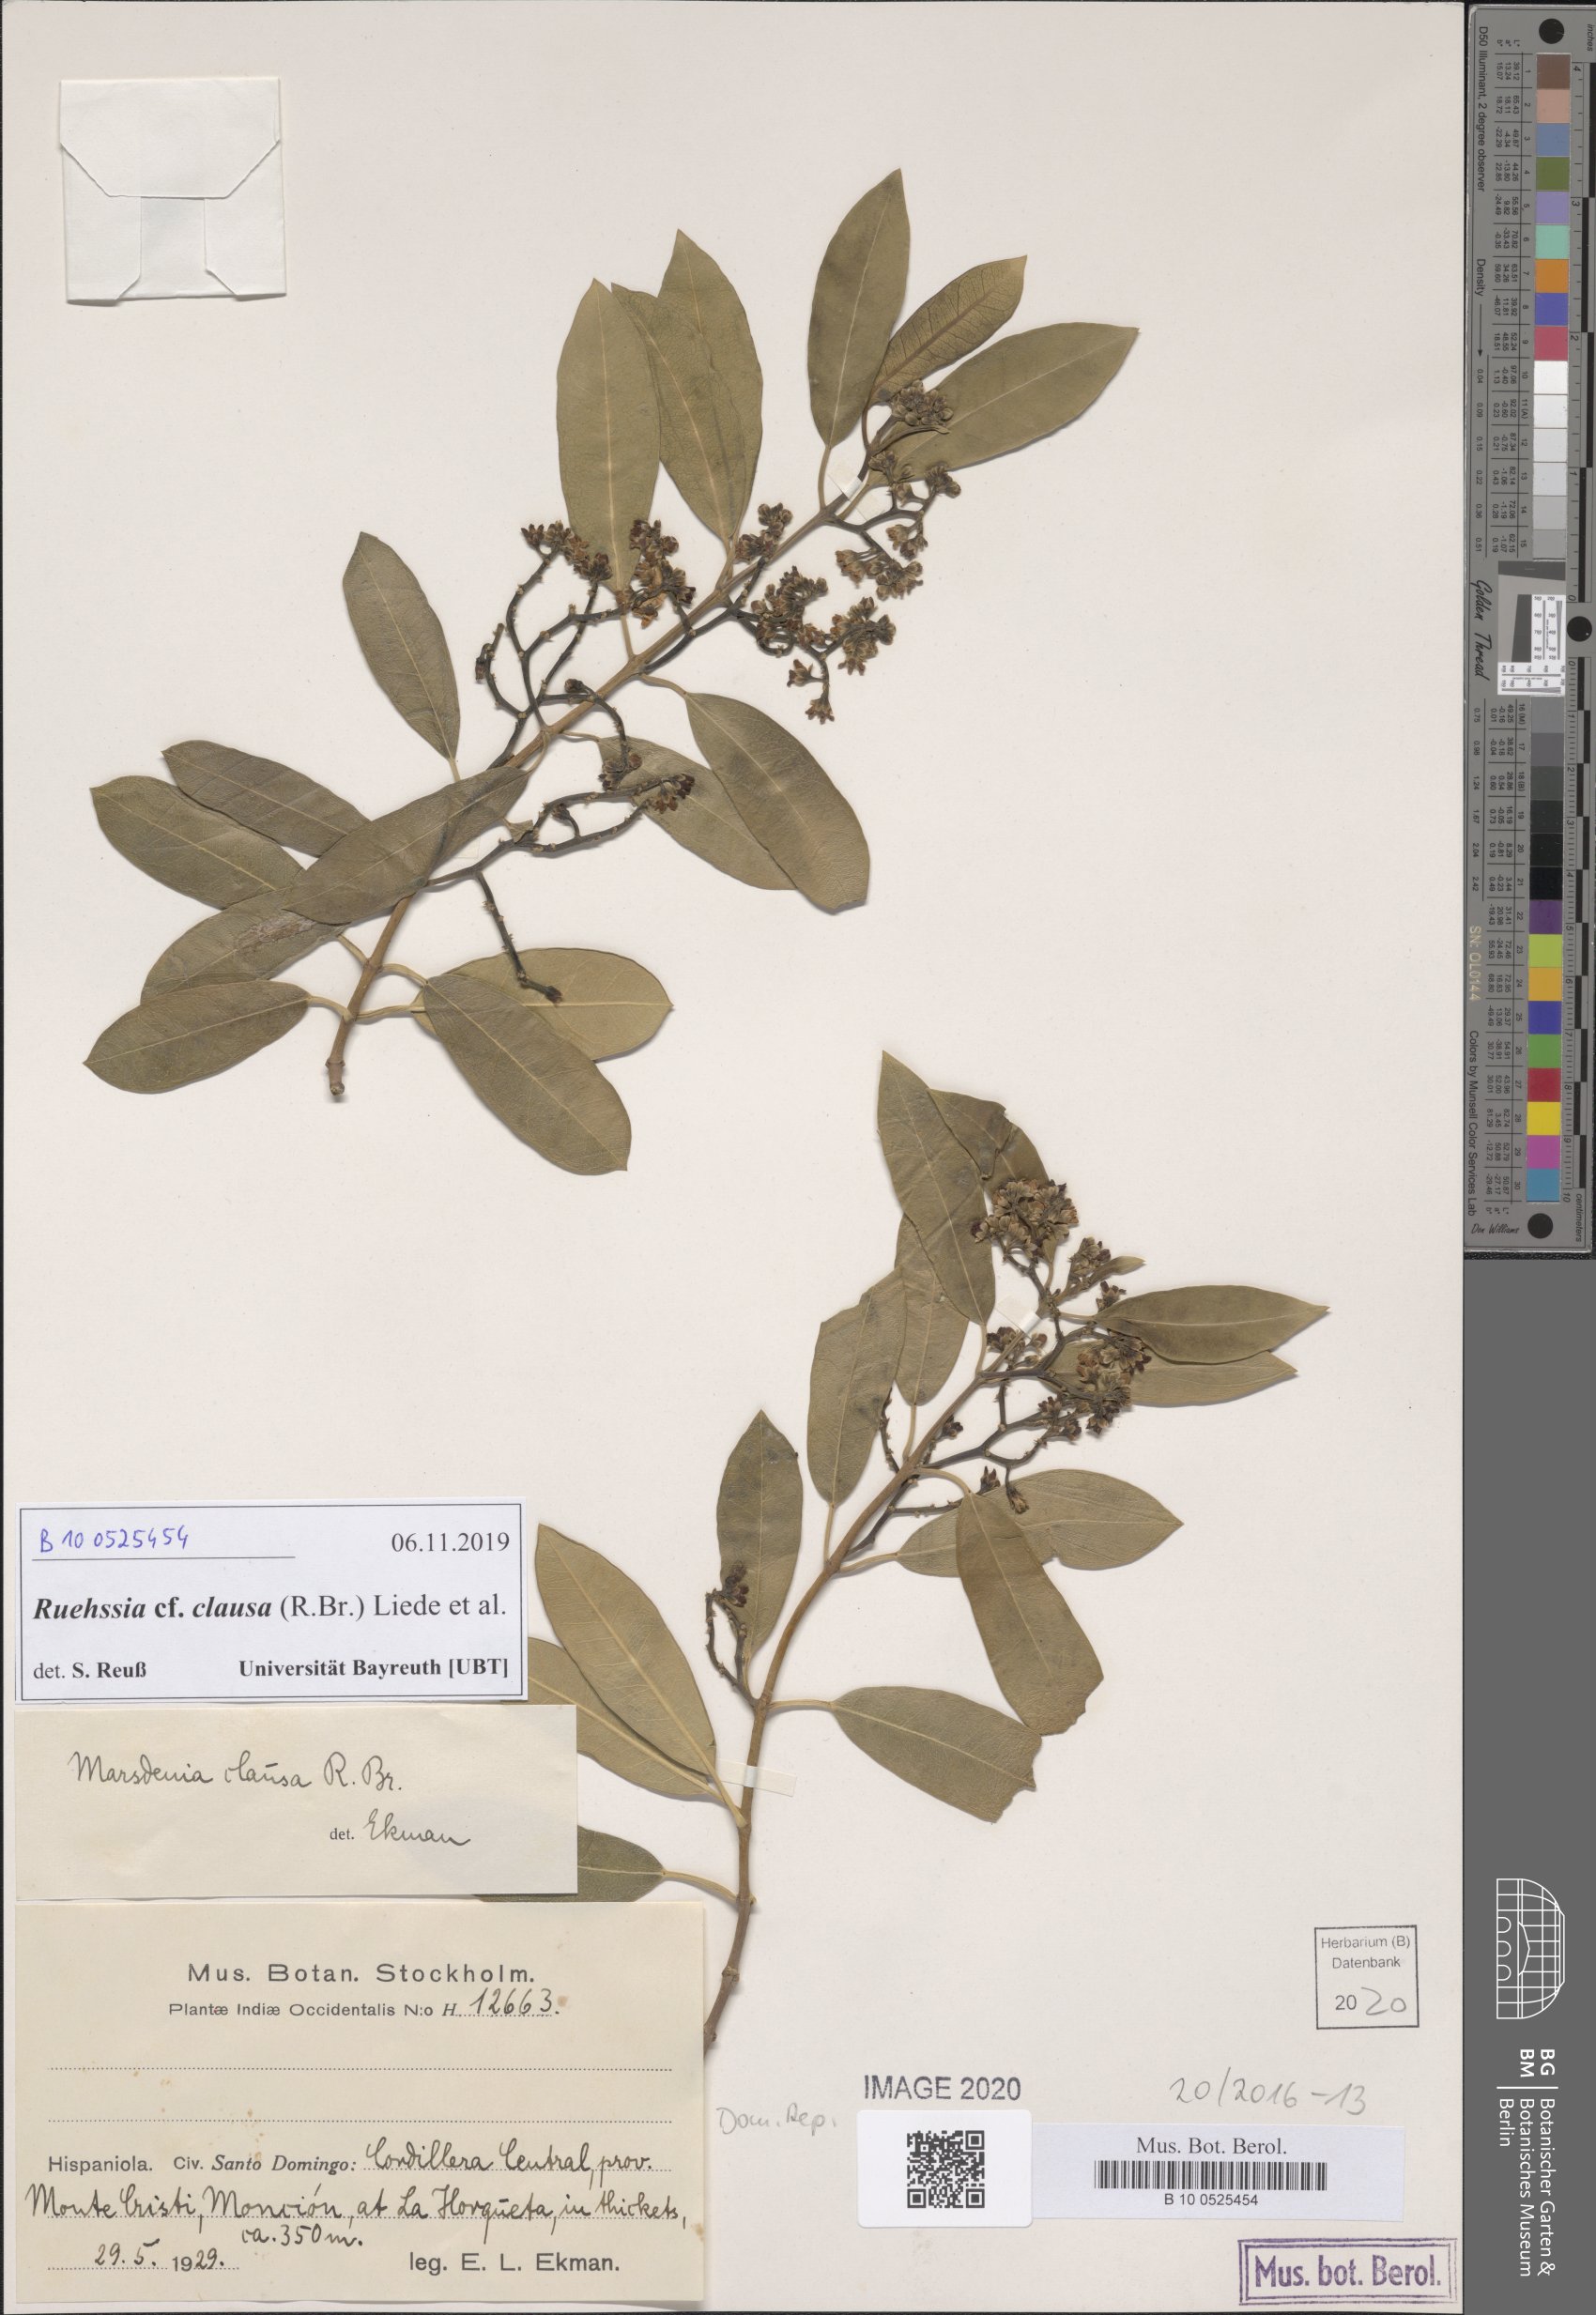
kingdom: Plantae
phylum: Tracheophyta
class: Magnoliopsida
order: Gentianales
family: Apocynaceae
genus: Ruehssia
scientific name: Ruehssia clausa
